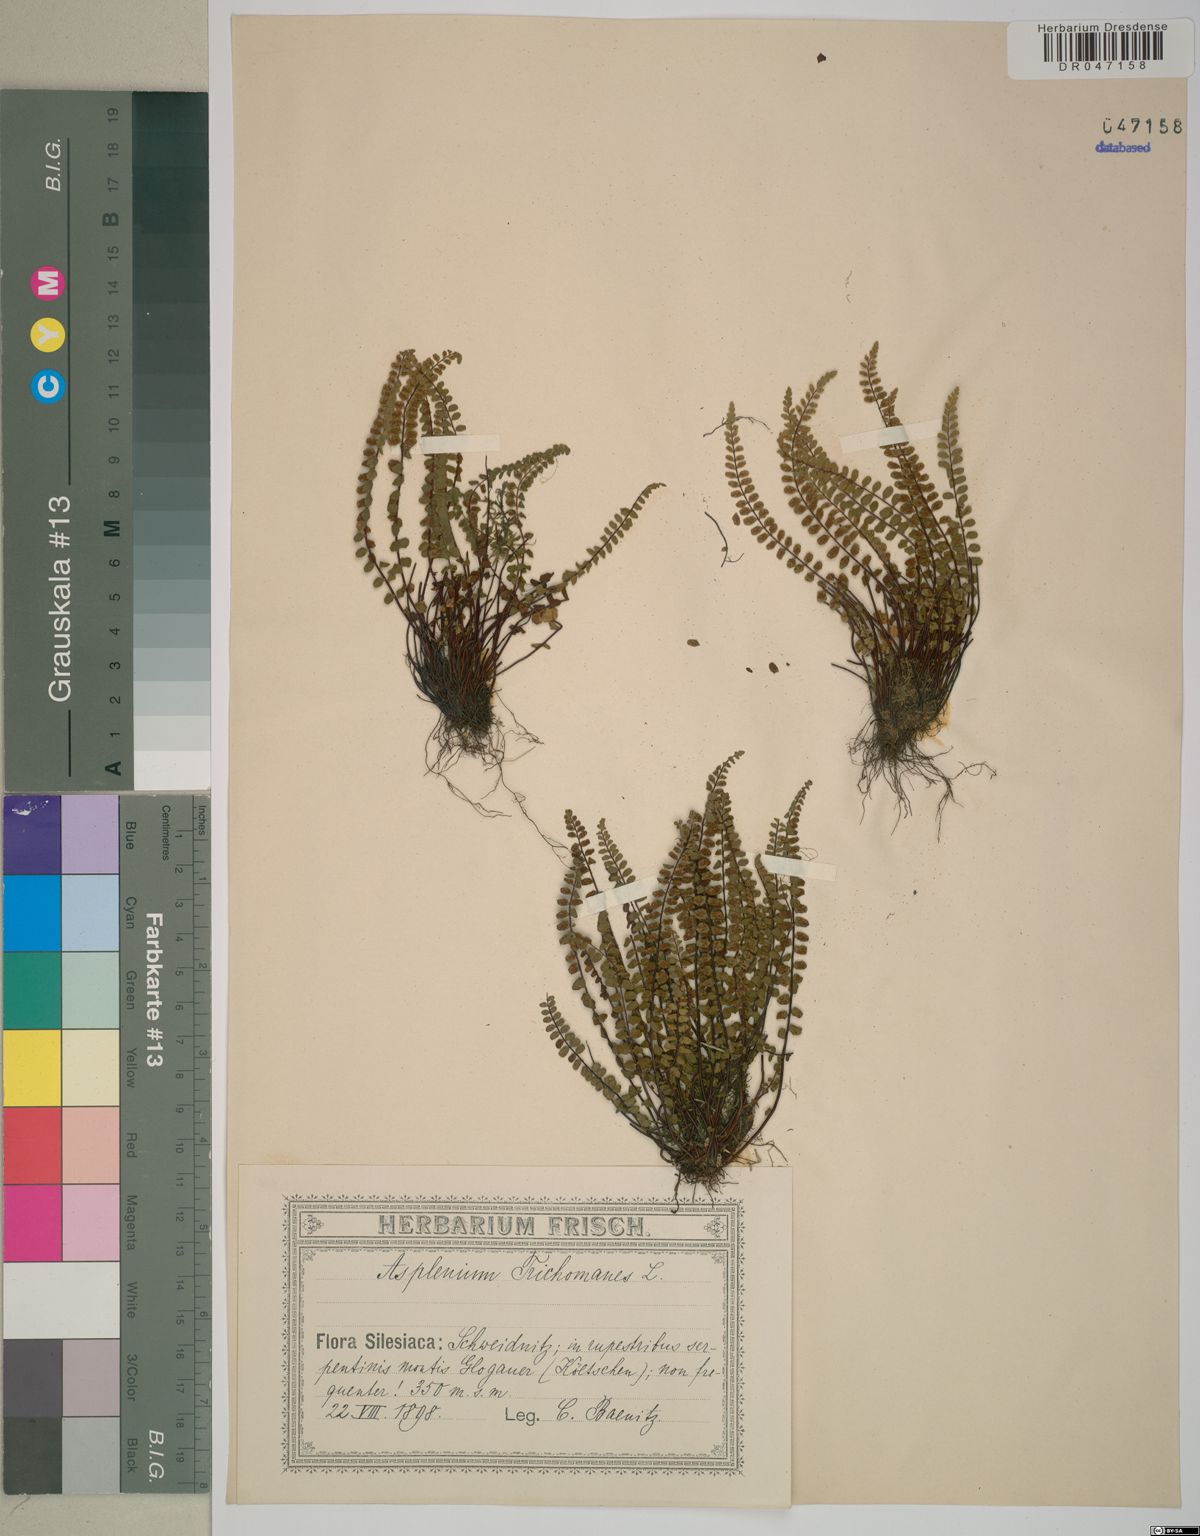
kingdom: Plantae
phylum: Tracheophyta
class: Polypodiopsida
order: Polypodiales
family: Aspleniaceae
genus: Asplenium
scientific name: Asplenium trichomanes
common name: Maidenhair spleenwort
